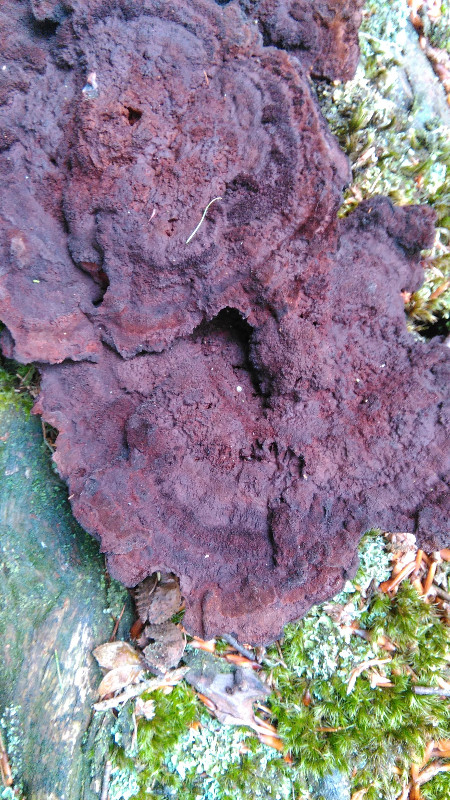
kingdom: Fungi
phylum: Basidiomycota
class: Agaricomycetes
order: Polyporales
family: Laetiporaceae
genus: Phaeolus
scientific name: Phaeolus schweinitzii
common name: brunporesvamp
